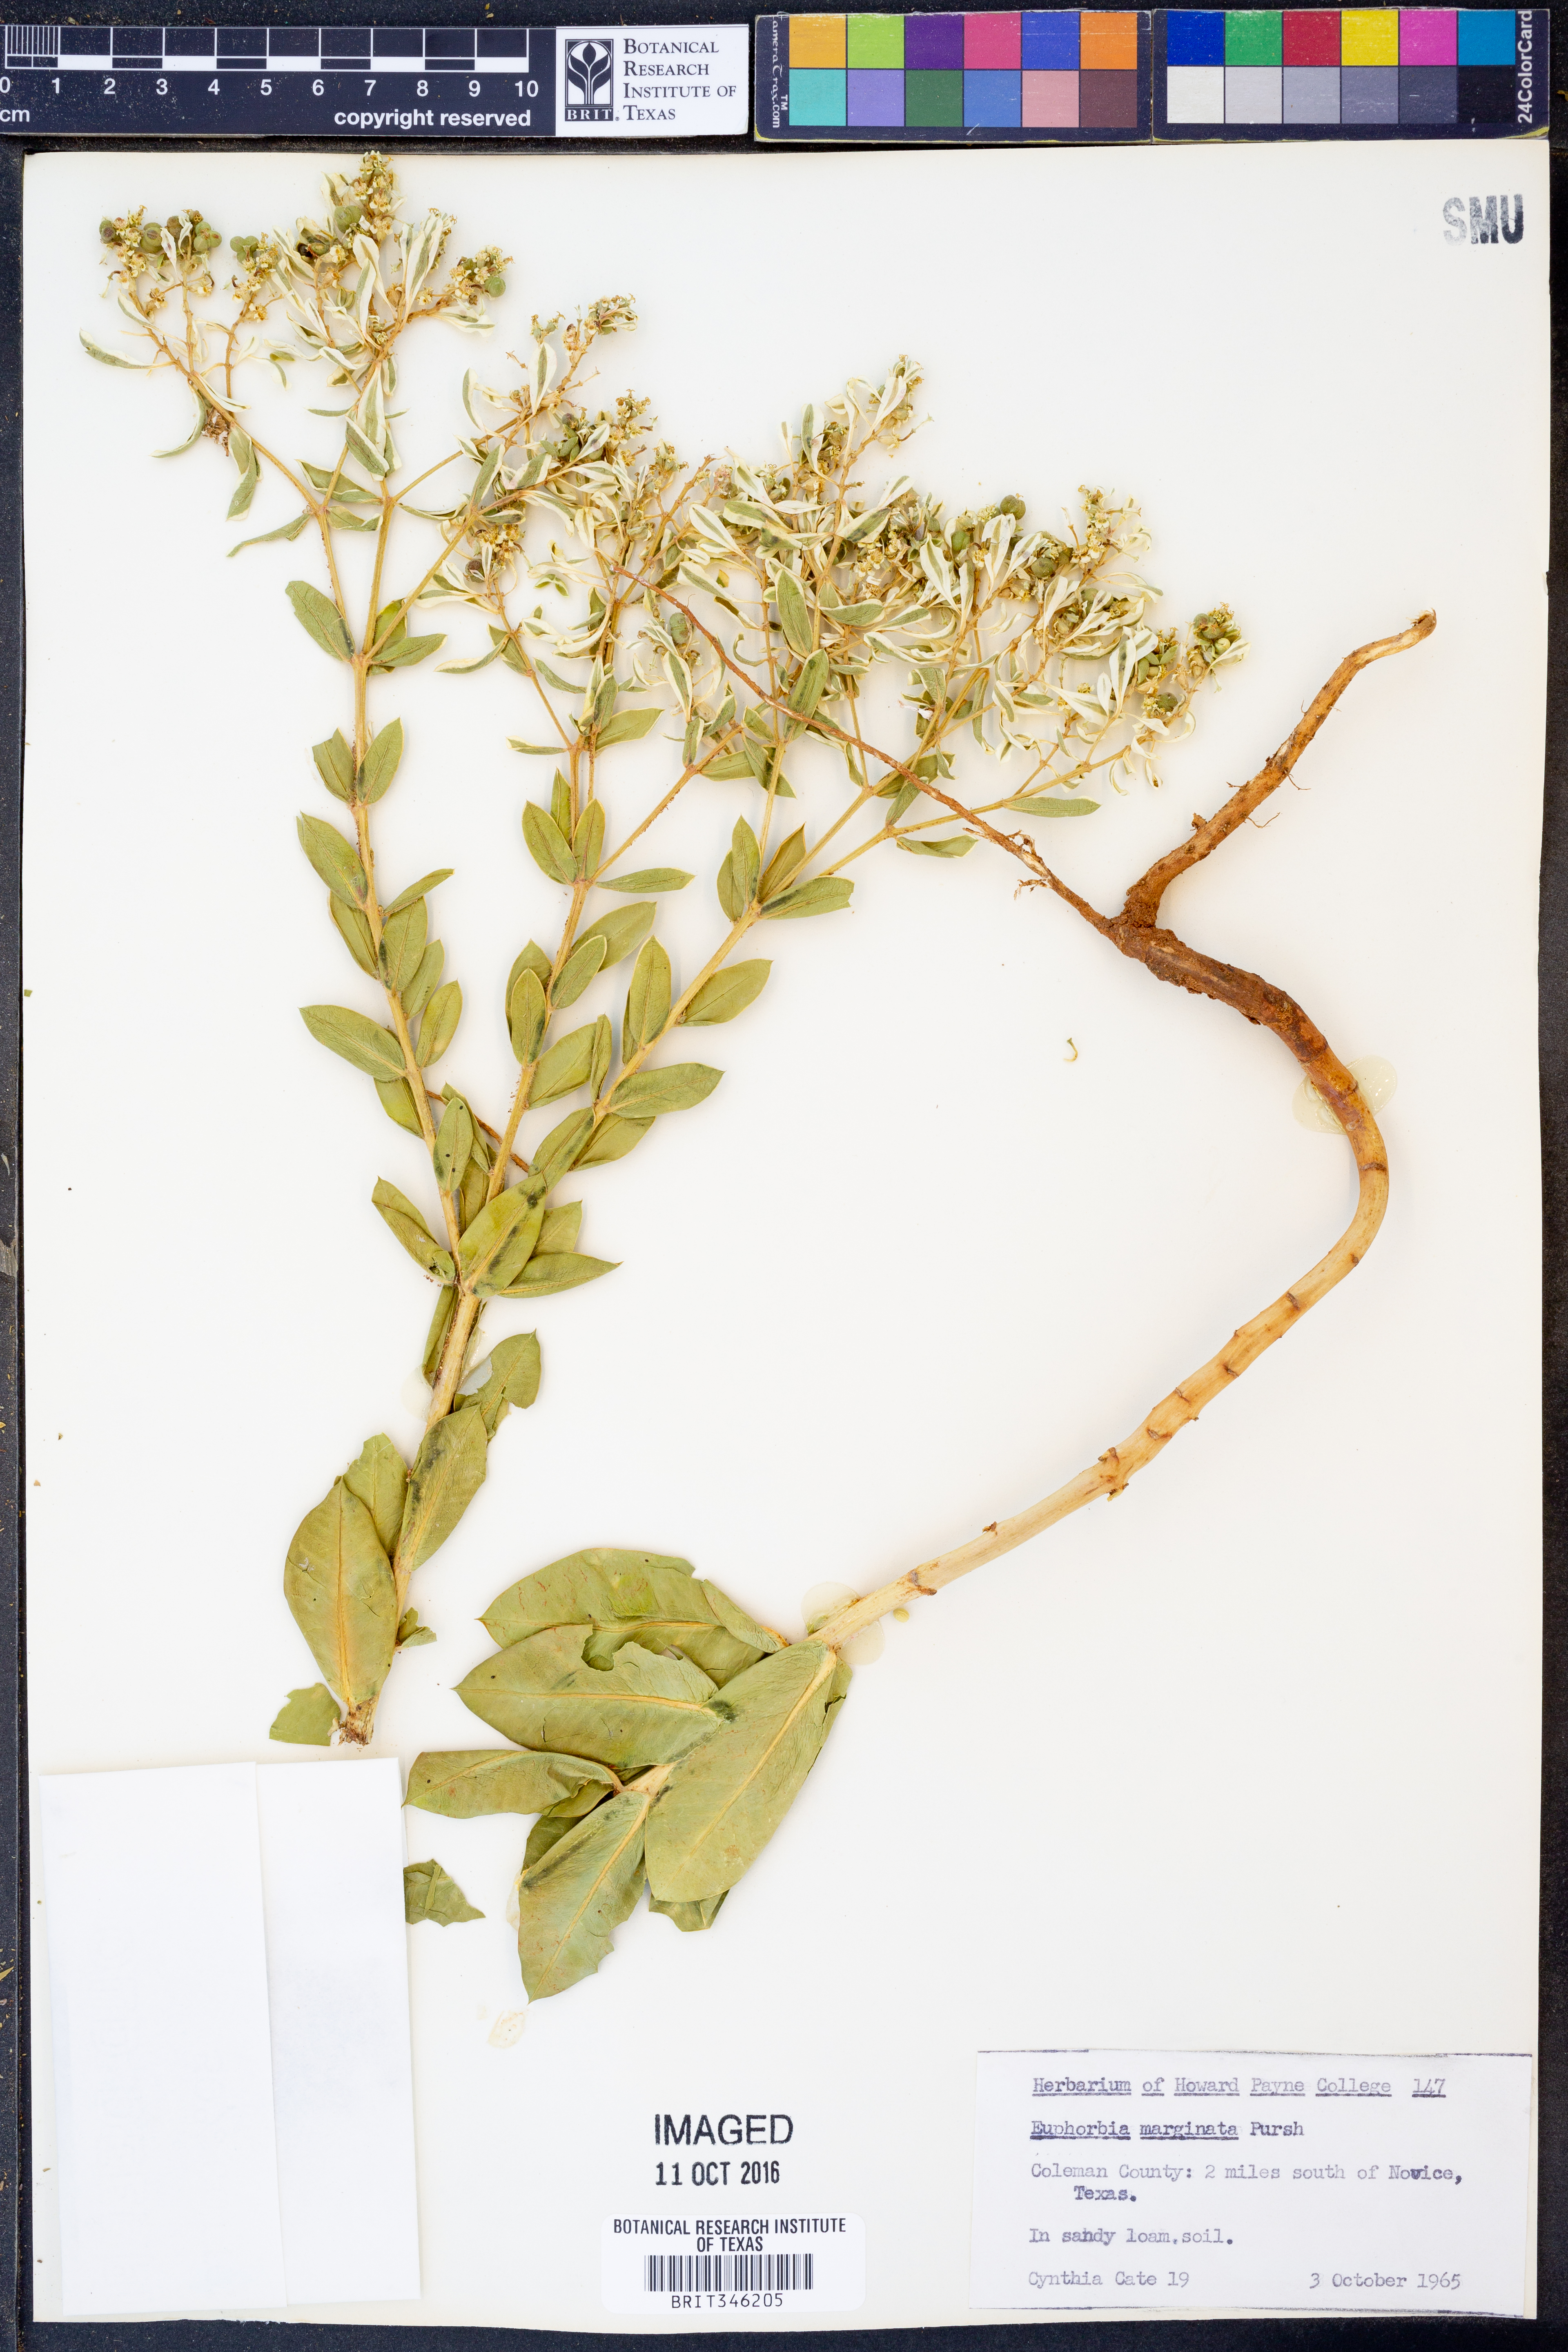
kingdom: Plantae
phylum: Tracheophyta
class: Magnoliopsida
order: Malpighiales
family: Euphorbiaceae
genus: Euphorbia
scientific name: Euphorbia marginata
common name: Ghostweed
